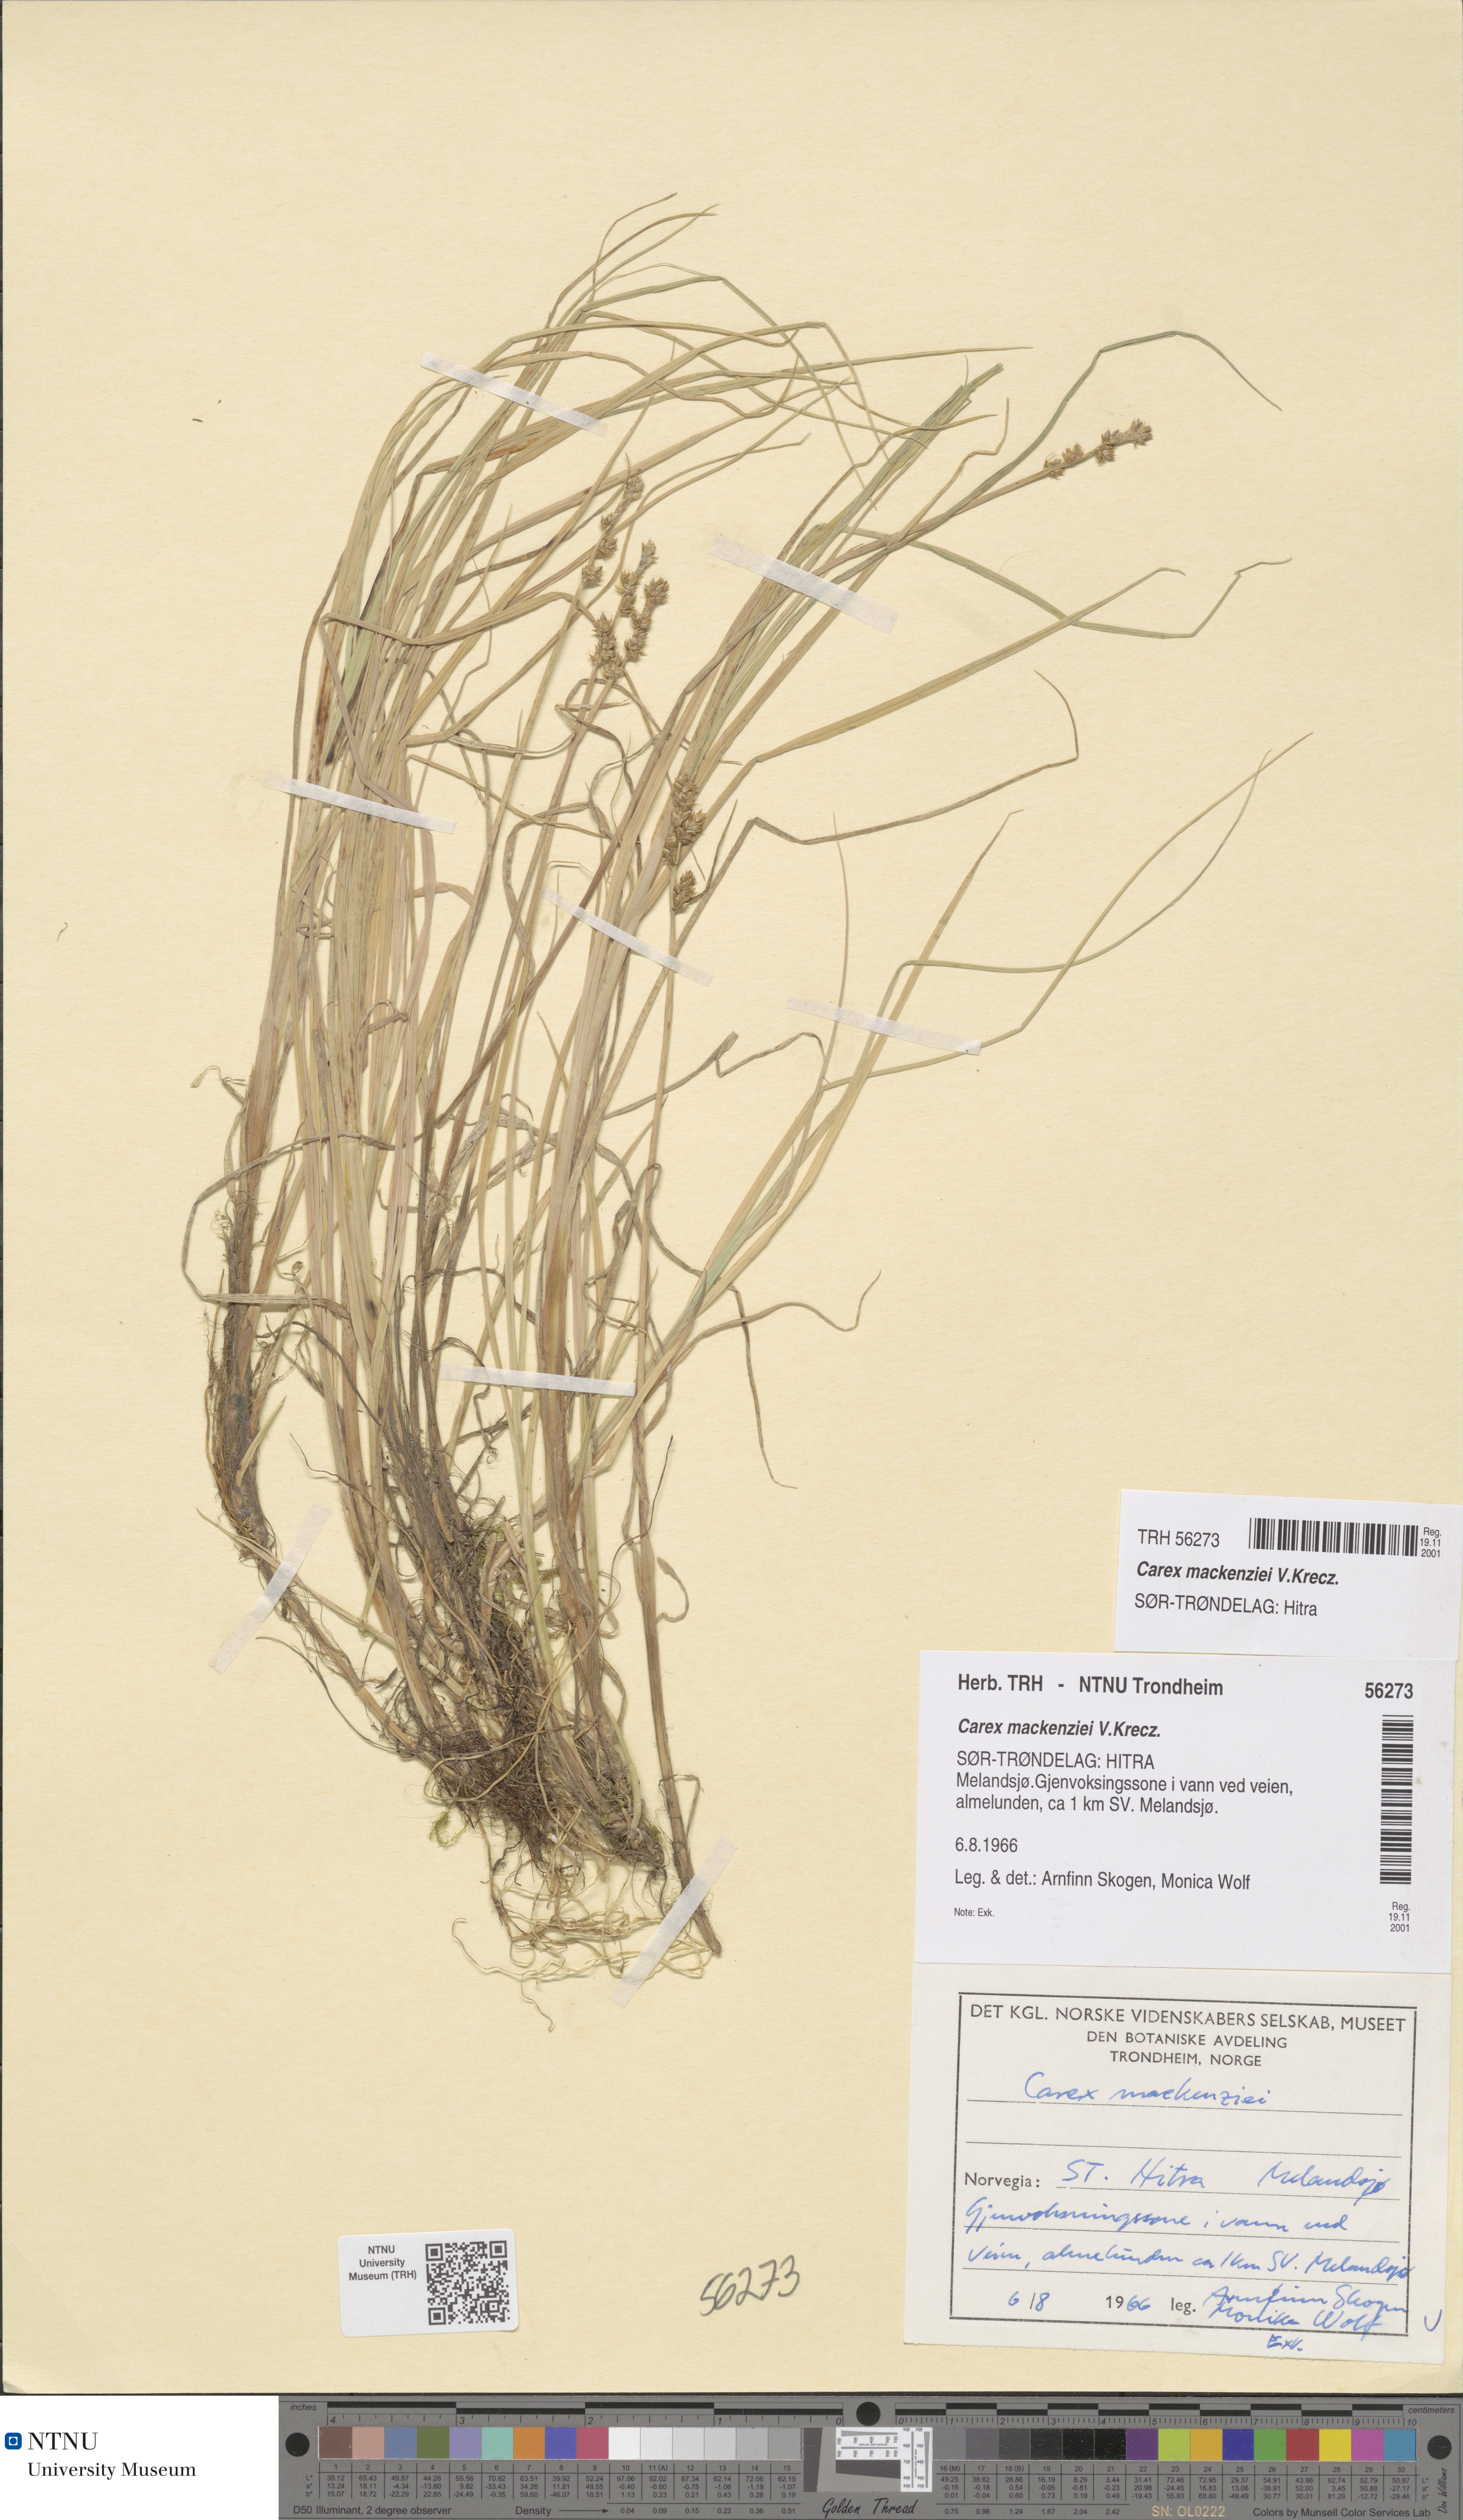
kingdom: Plantae
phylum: Tracheophyta
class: Liliopsida
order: Poales
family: Cyperaceae
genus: Carex
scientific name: Carex mackenziei
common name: Mackenzie's sedge
